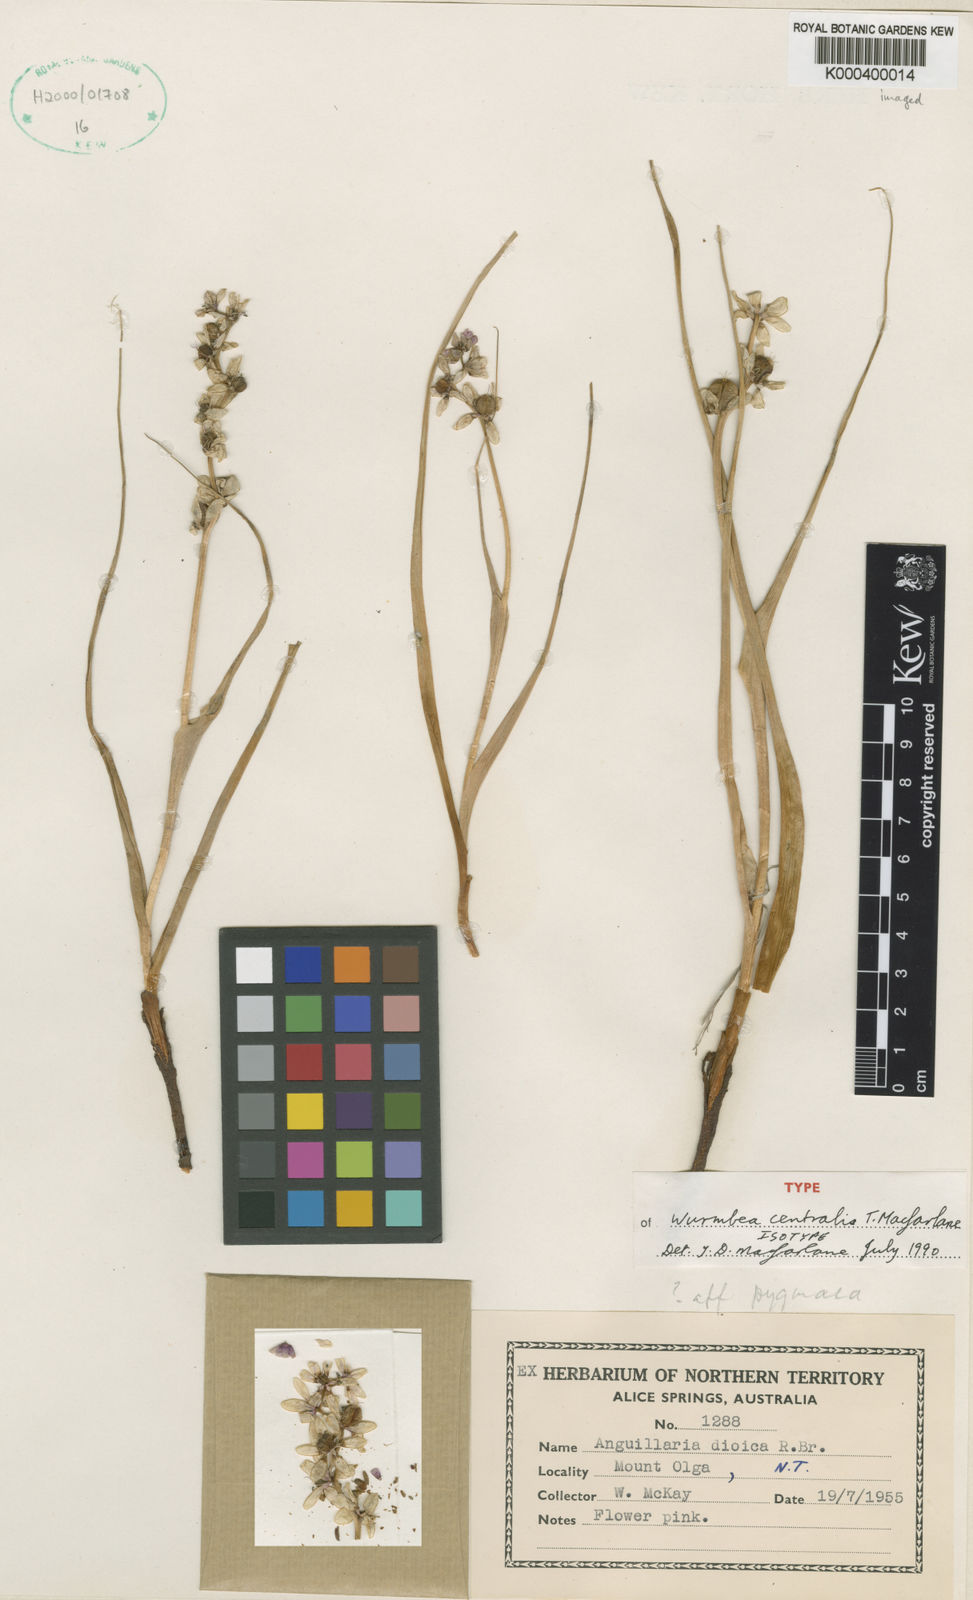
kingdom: Plantae
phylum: Tracheophyta
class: Liliopsida
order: Liliales
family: Colchicaceae
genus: Wurmbea
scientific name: Wurmbea centralis
